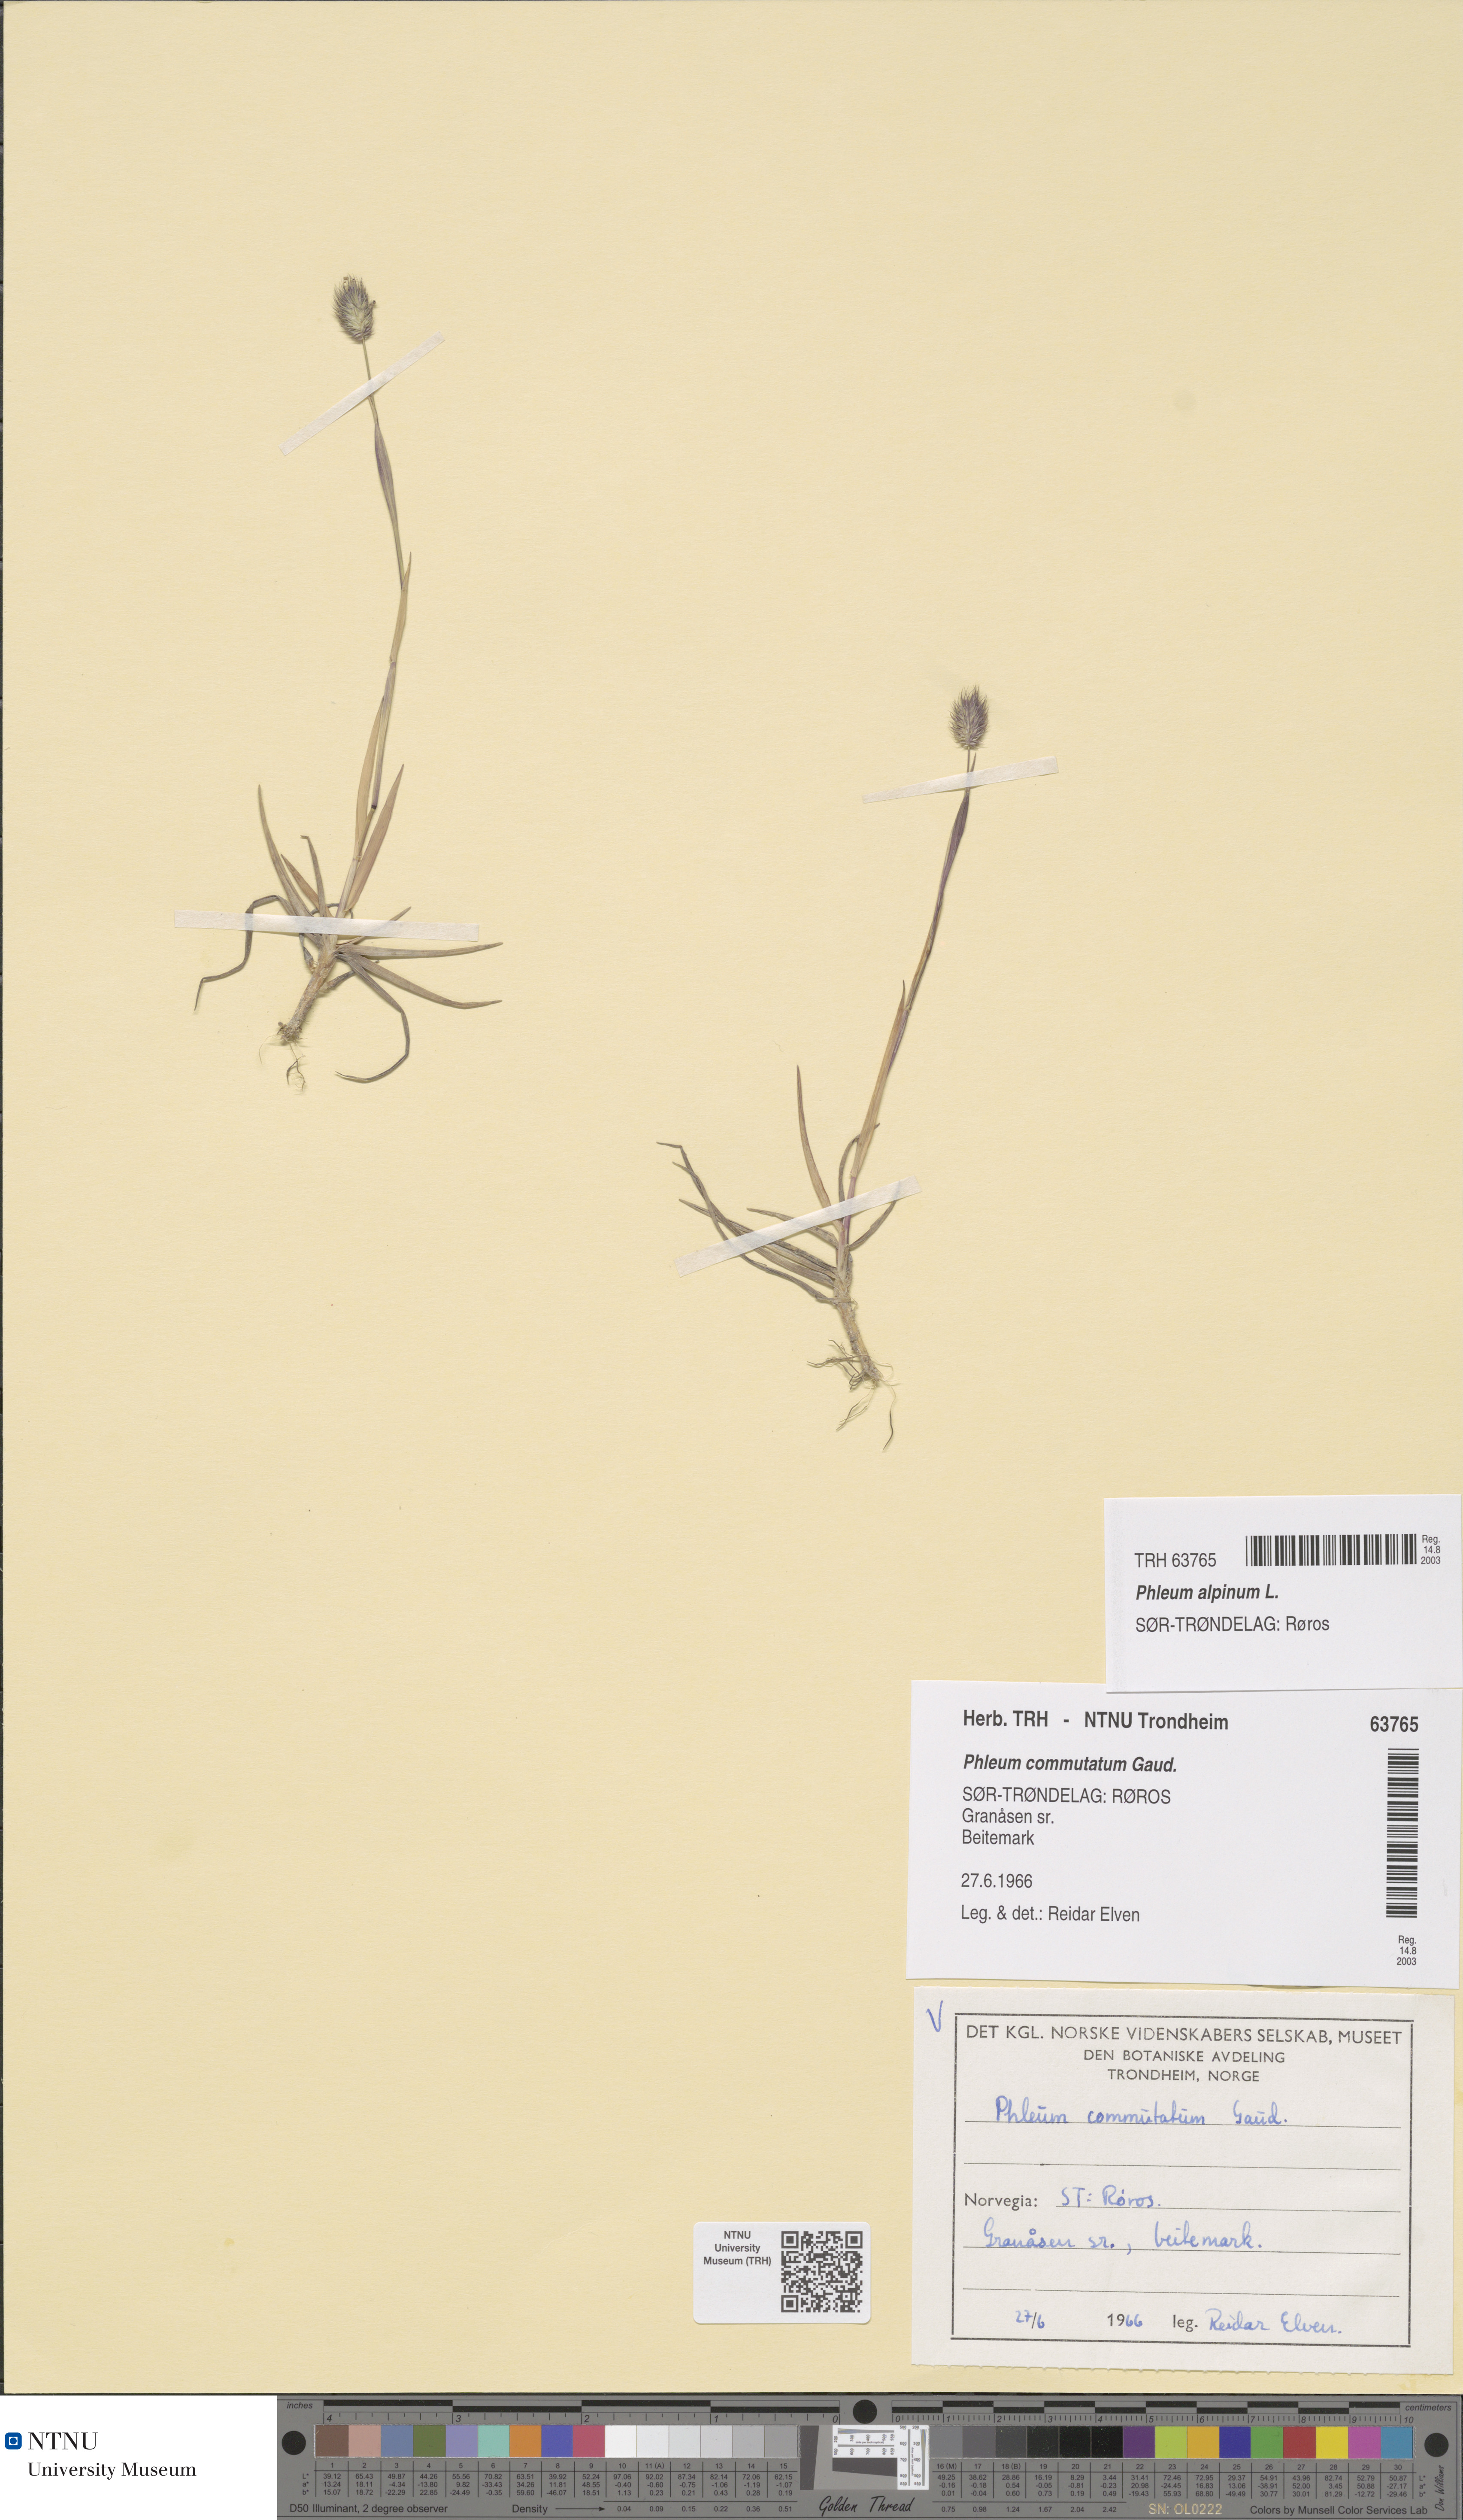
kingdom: Plantae
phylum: Tracheophyta
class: Liliopsida
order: Poales
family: Poaceae
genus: Phleum
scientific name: Phleum alpinum
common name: Alpine cat's-tail
